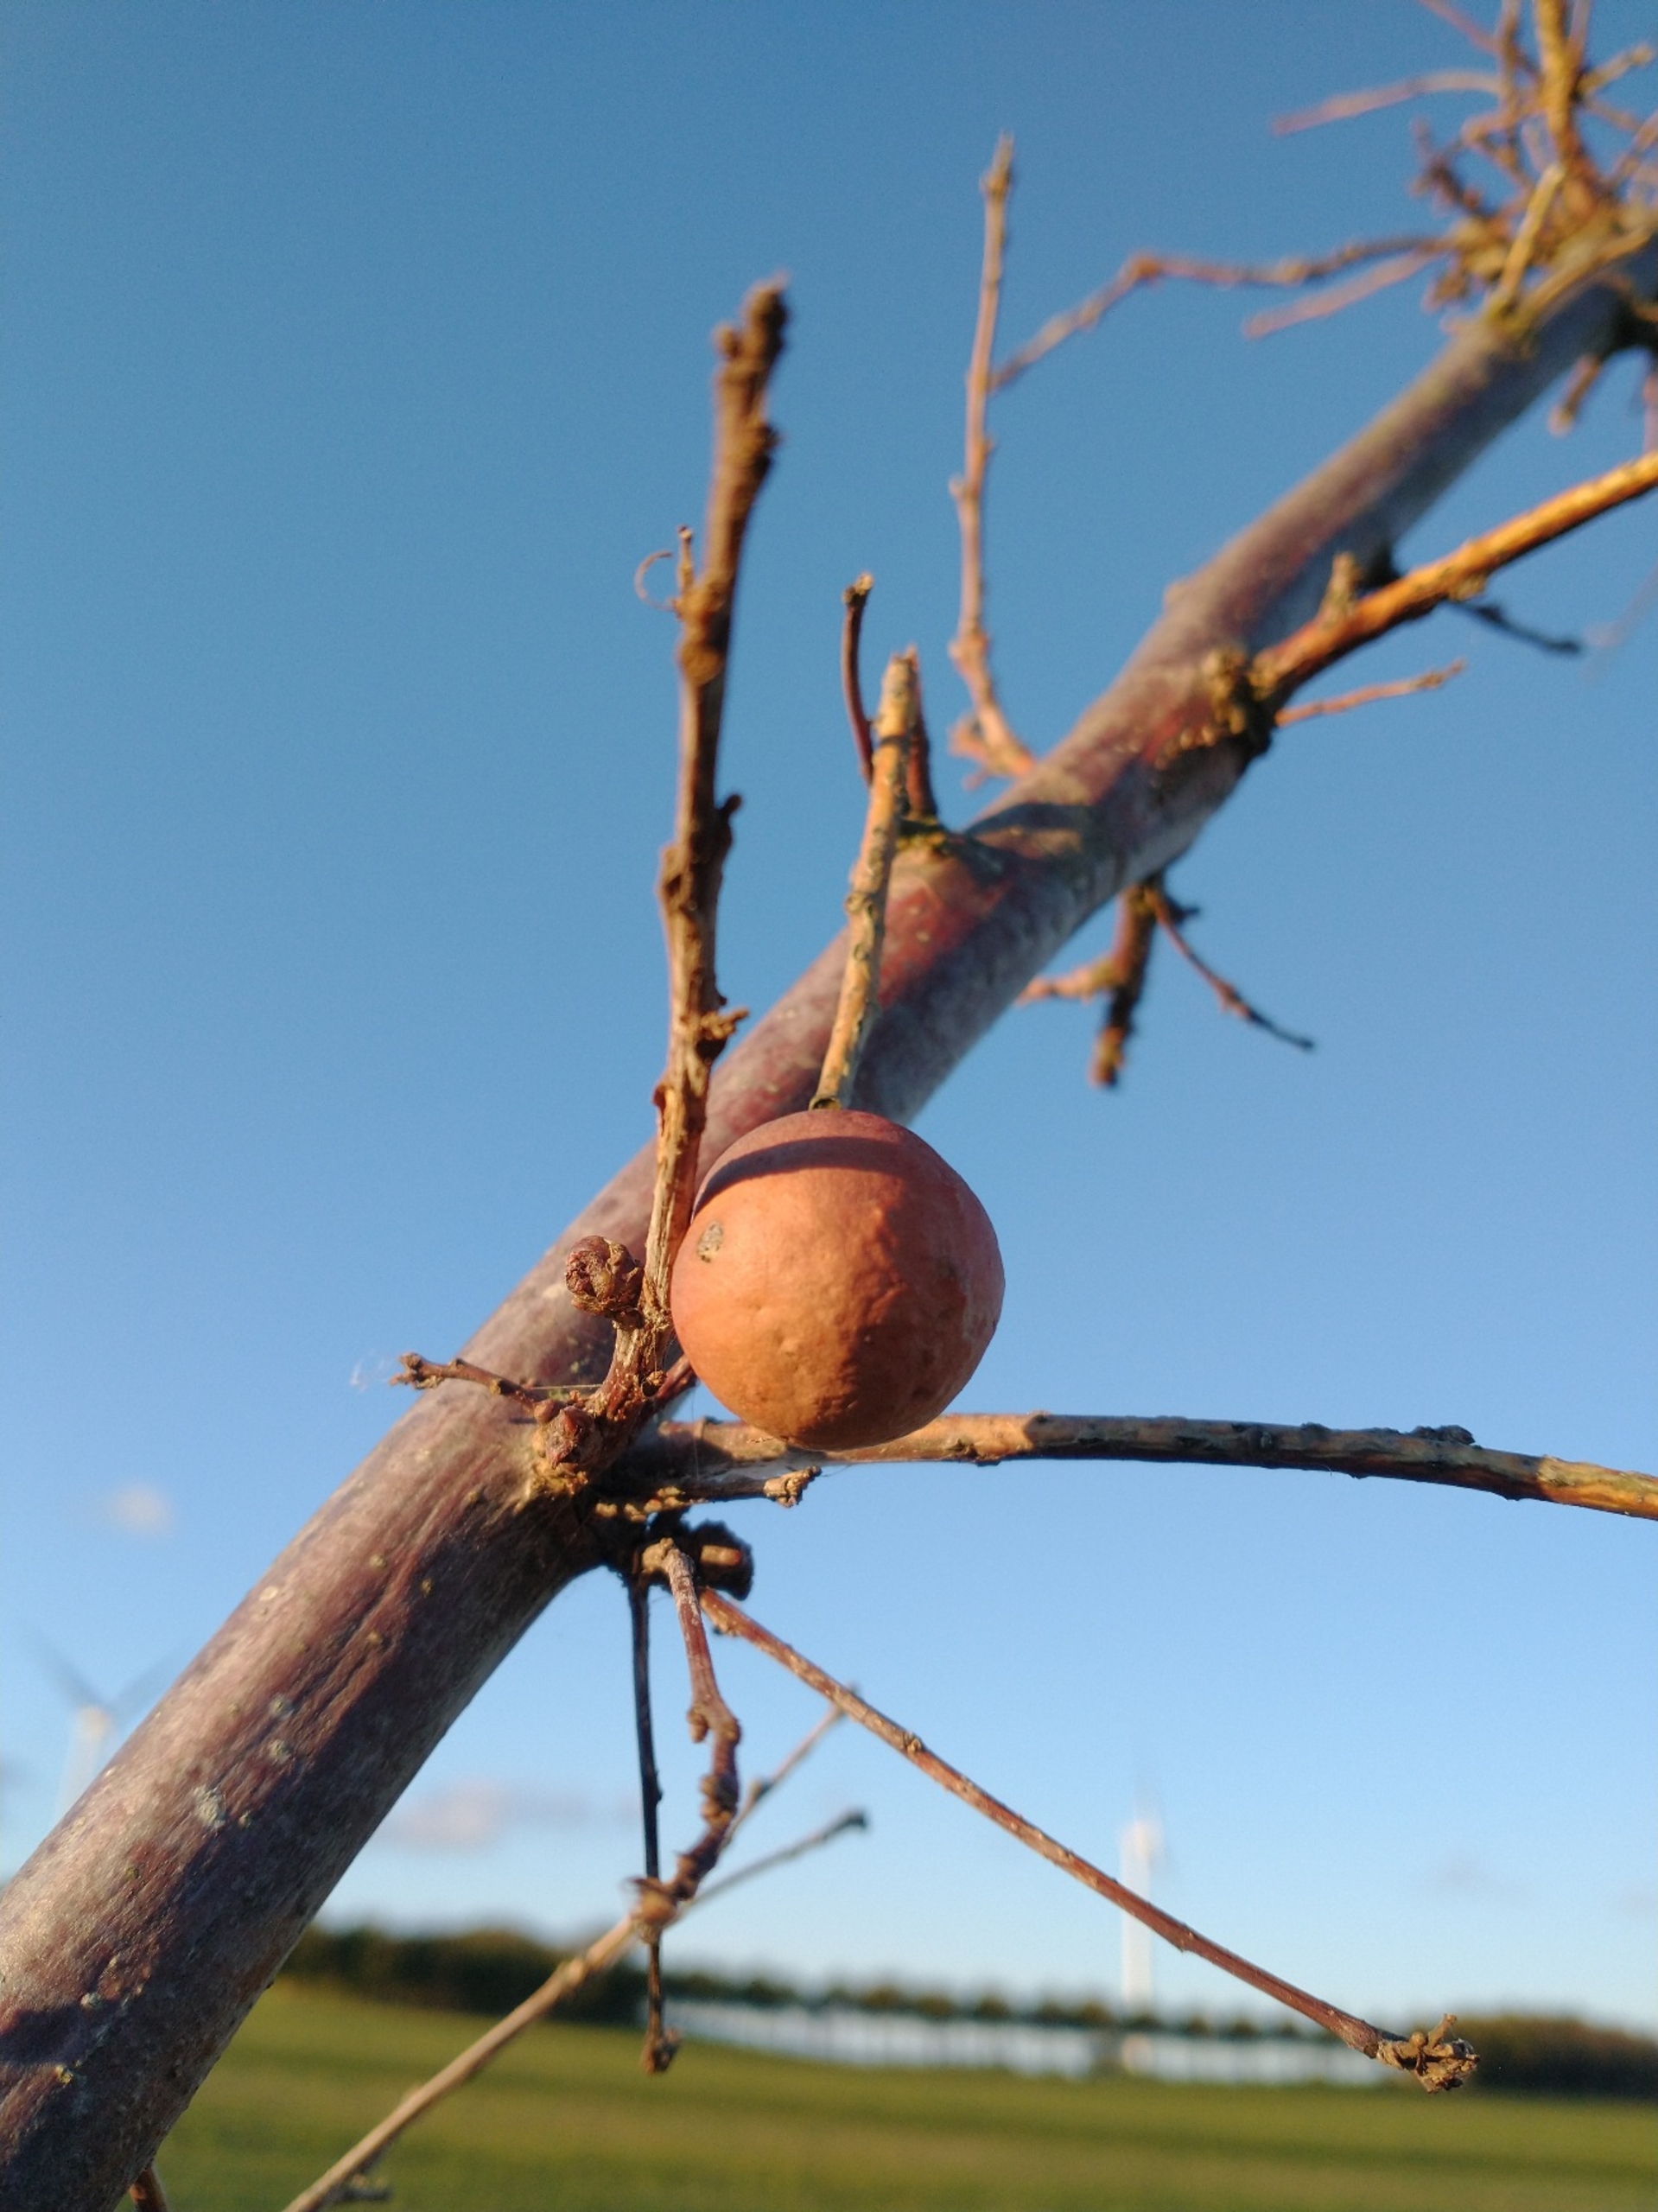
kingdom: Animalia
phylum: Arthropoda
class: Insecta
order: Hymenoptera
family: Cynipidae
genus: Andricus
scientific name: Andricus kollari
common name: Marmorkugle-galhveps
